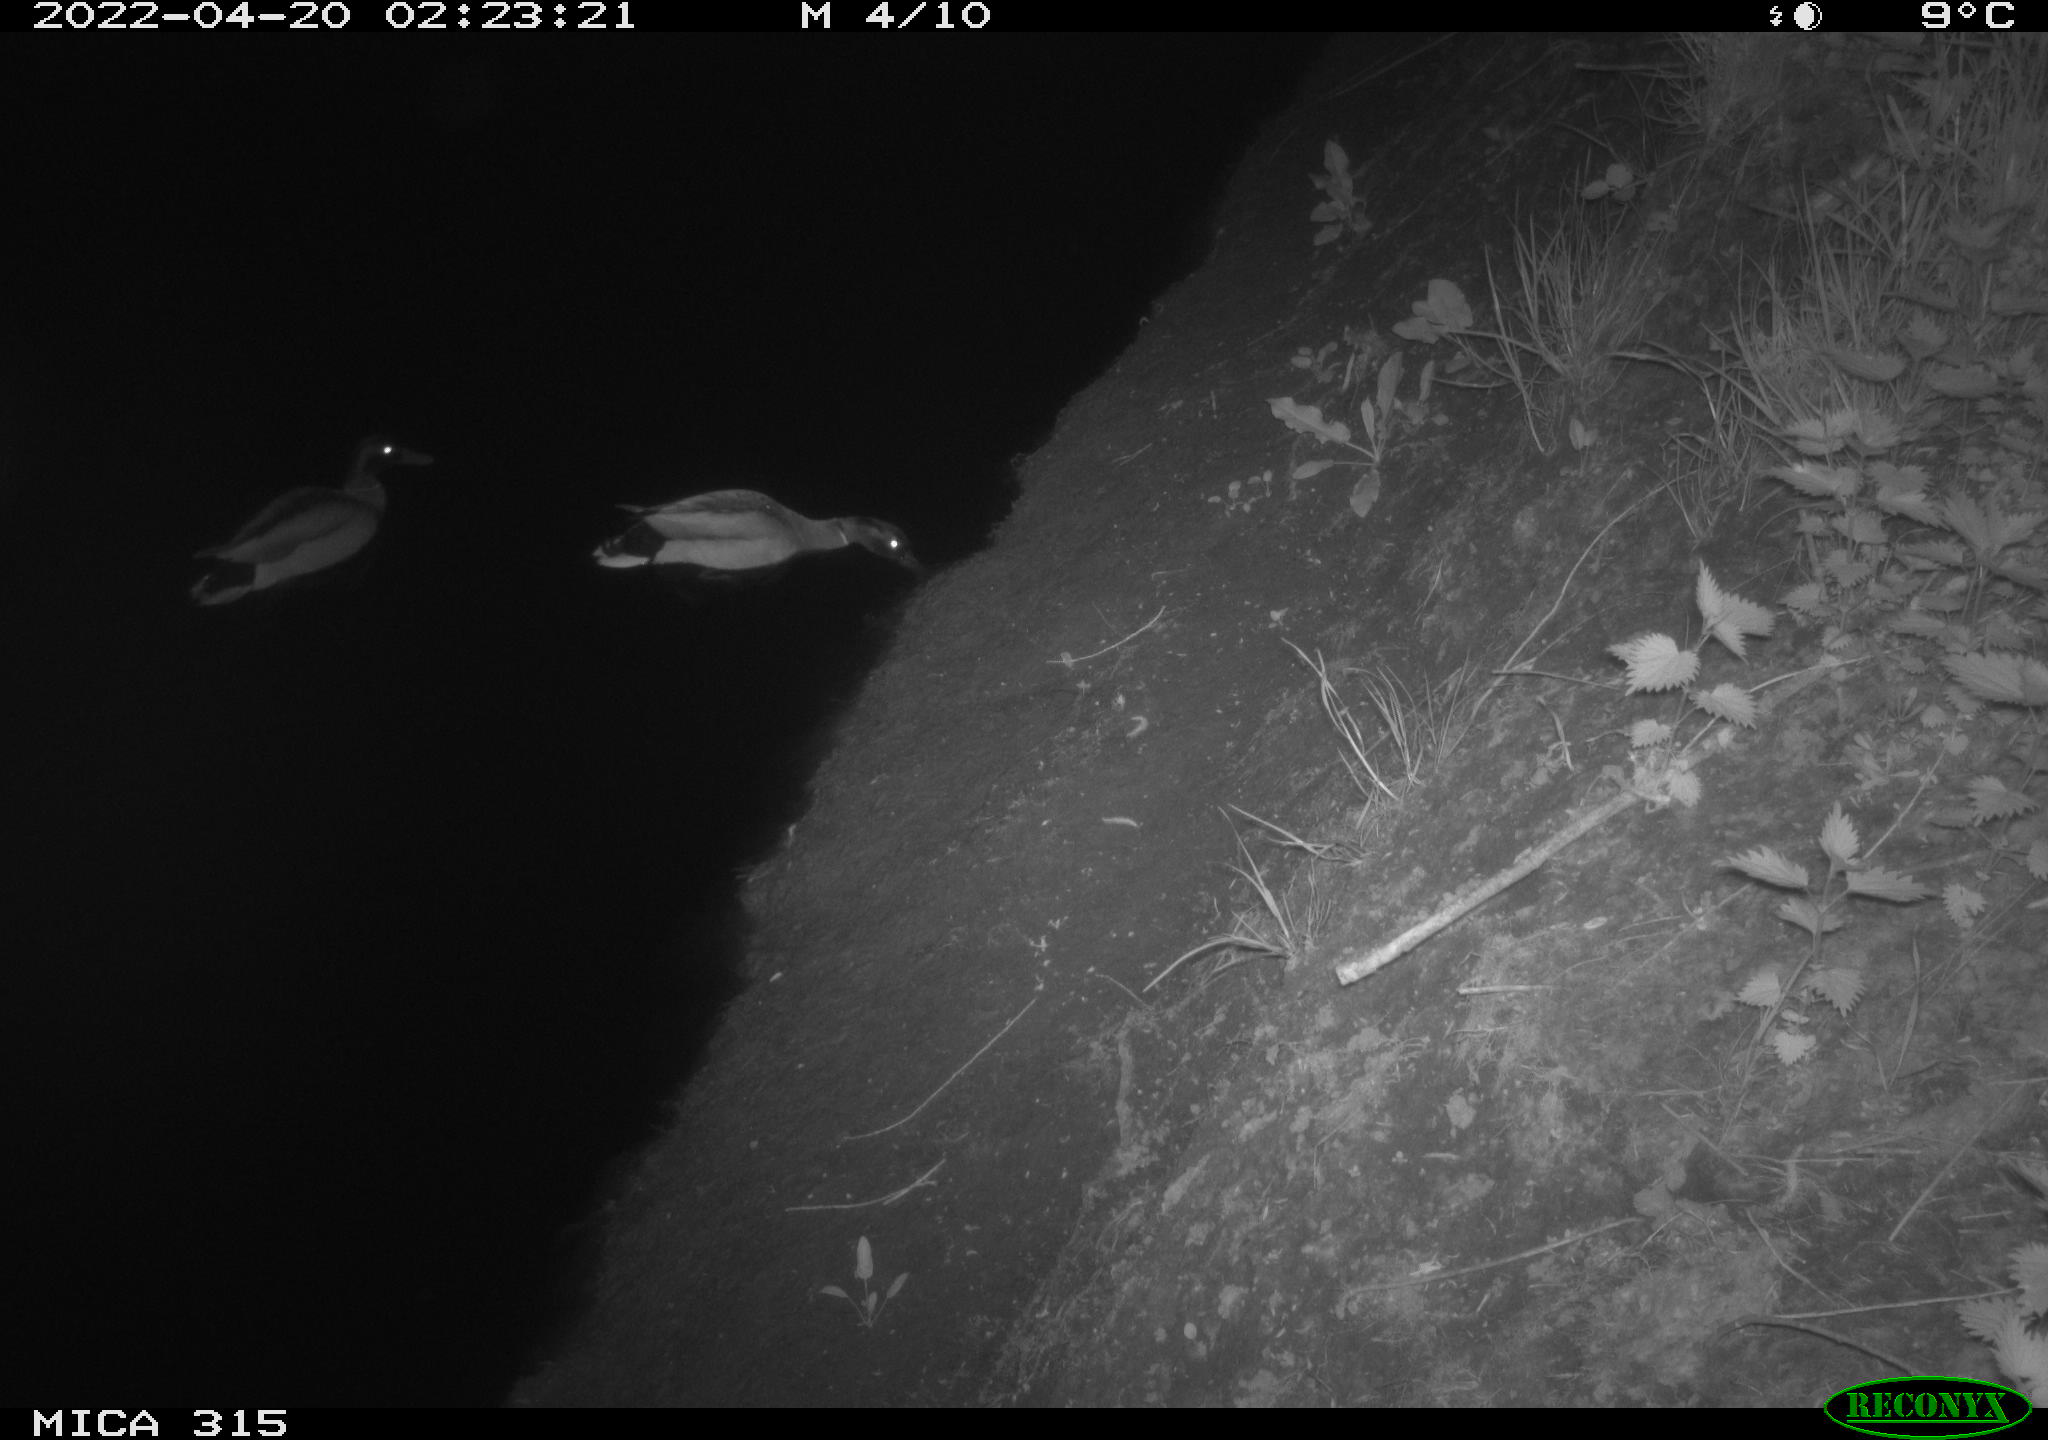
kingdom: Animalia
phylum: Chordata
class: Aves
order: Anseriformes
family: Anatidae
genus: Anas
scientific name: Anas platyrhynchos
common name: Mallard
